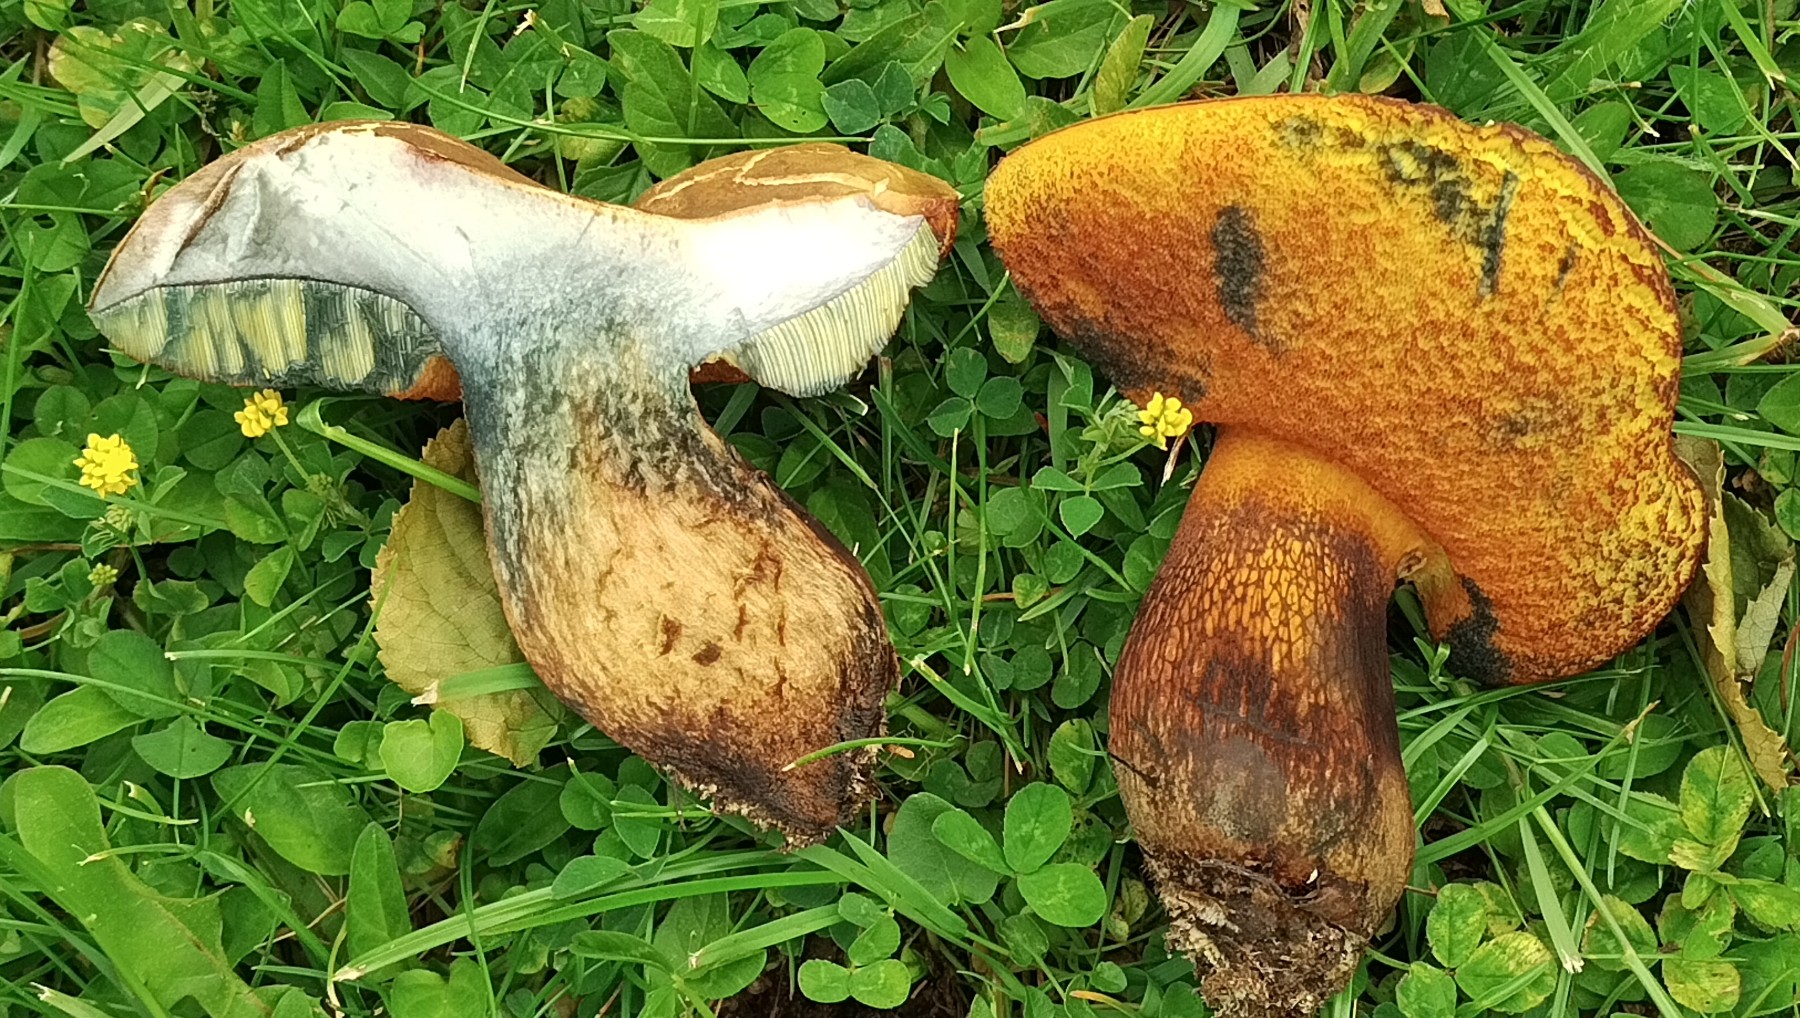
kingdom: Fungi
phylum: Basidiomycota
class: Agaricomycetes
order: Boletales
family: Boletaceae
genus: Suillellus
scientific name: Suillellus luridus
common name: netstokket indigorørhat
